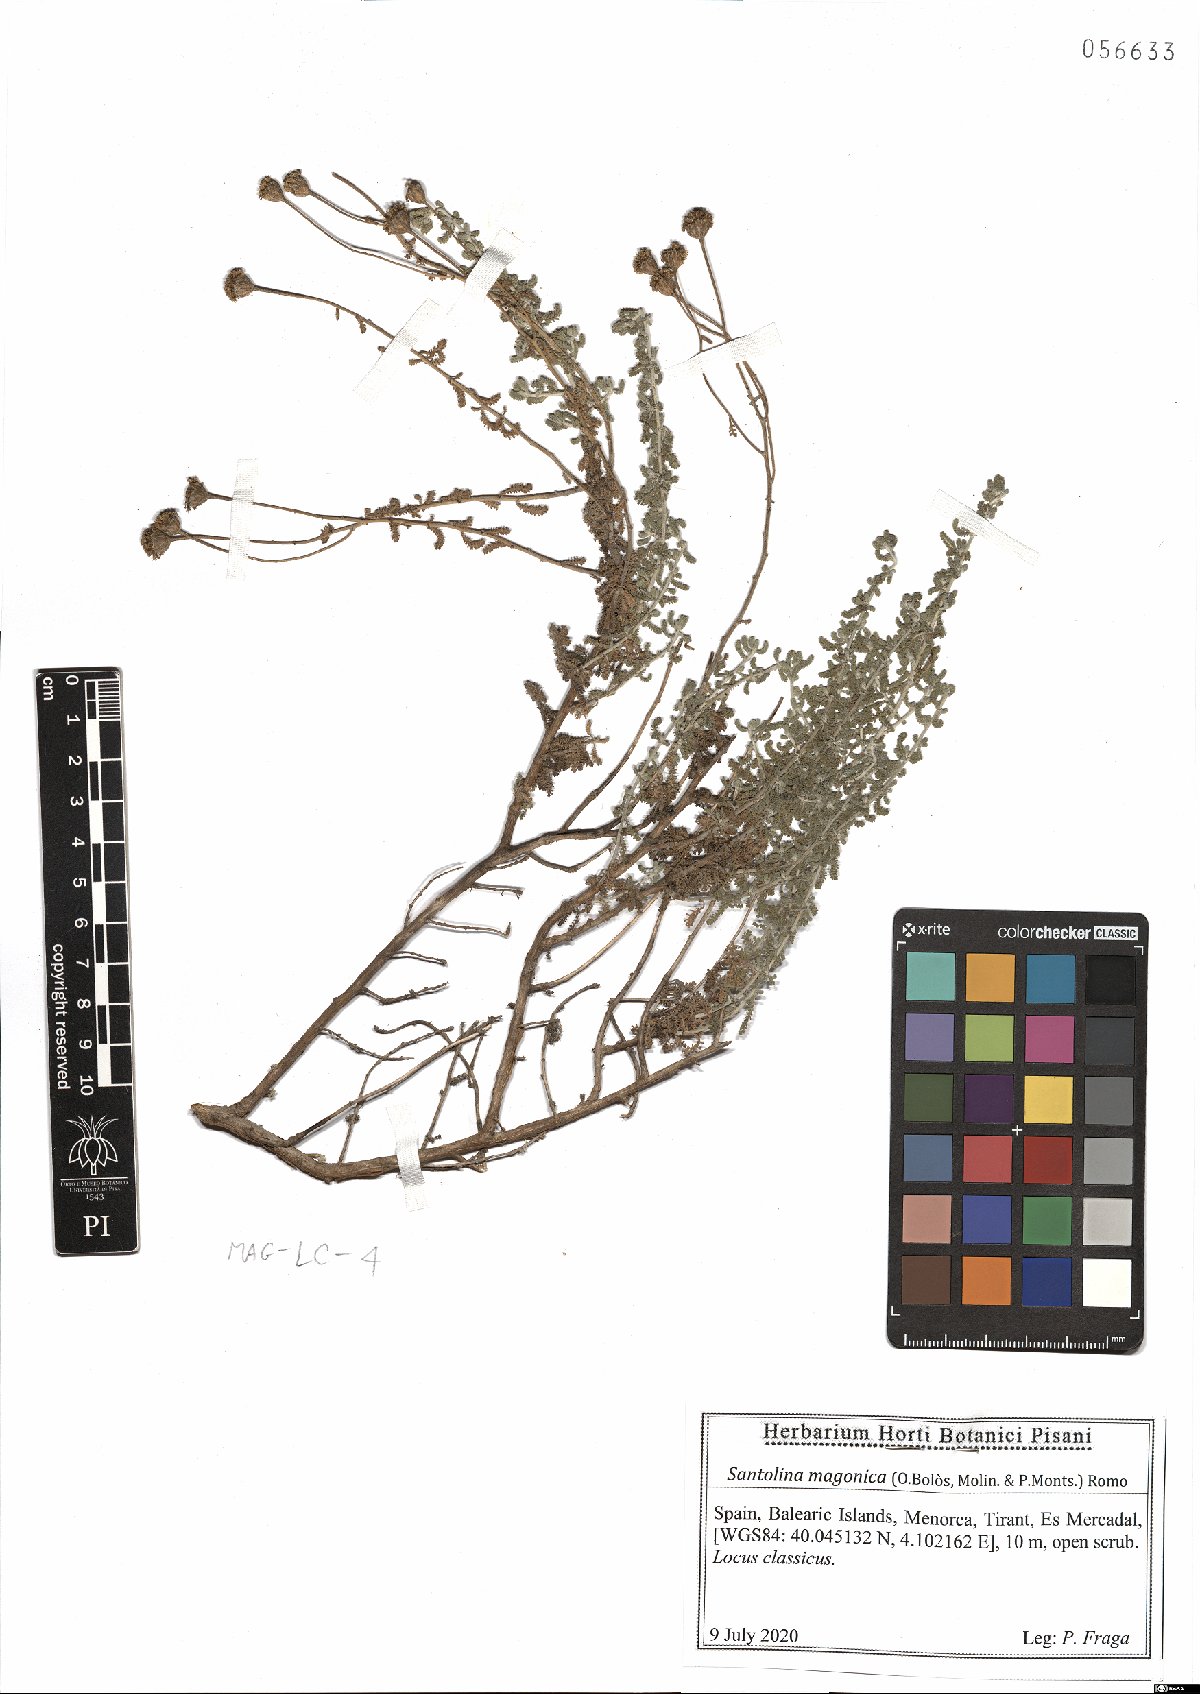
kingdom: Plantae
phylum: Tracheophyta
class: Magnoliopsida
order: Asterales
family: Asteraceae
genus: Santolina
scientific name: Santolina magonica
